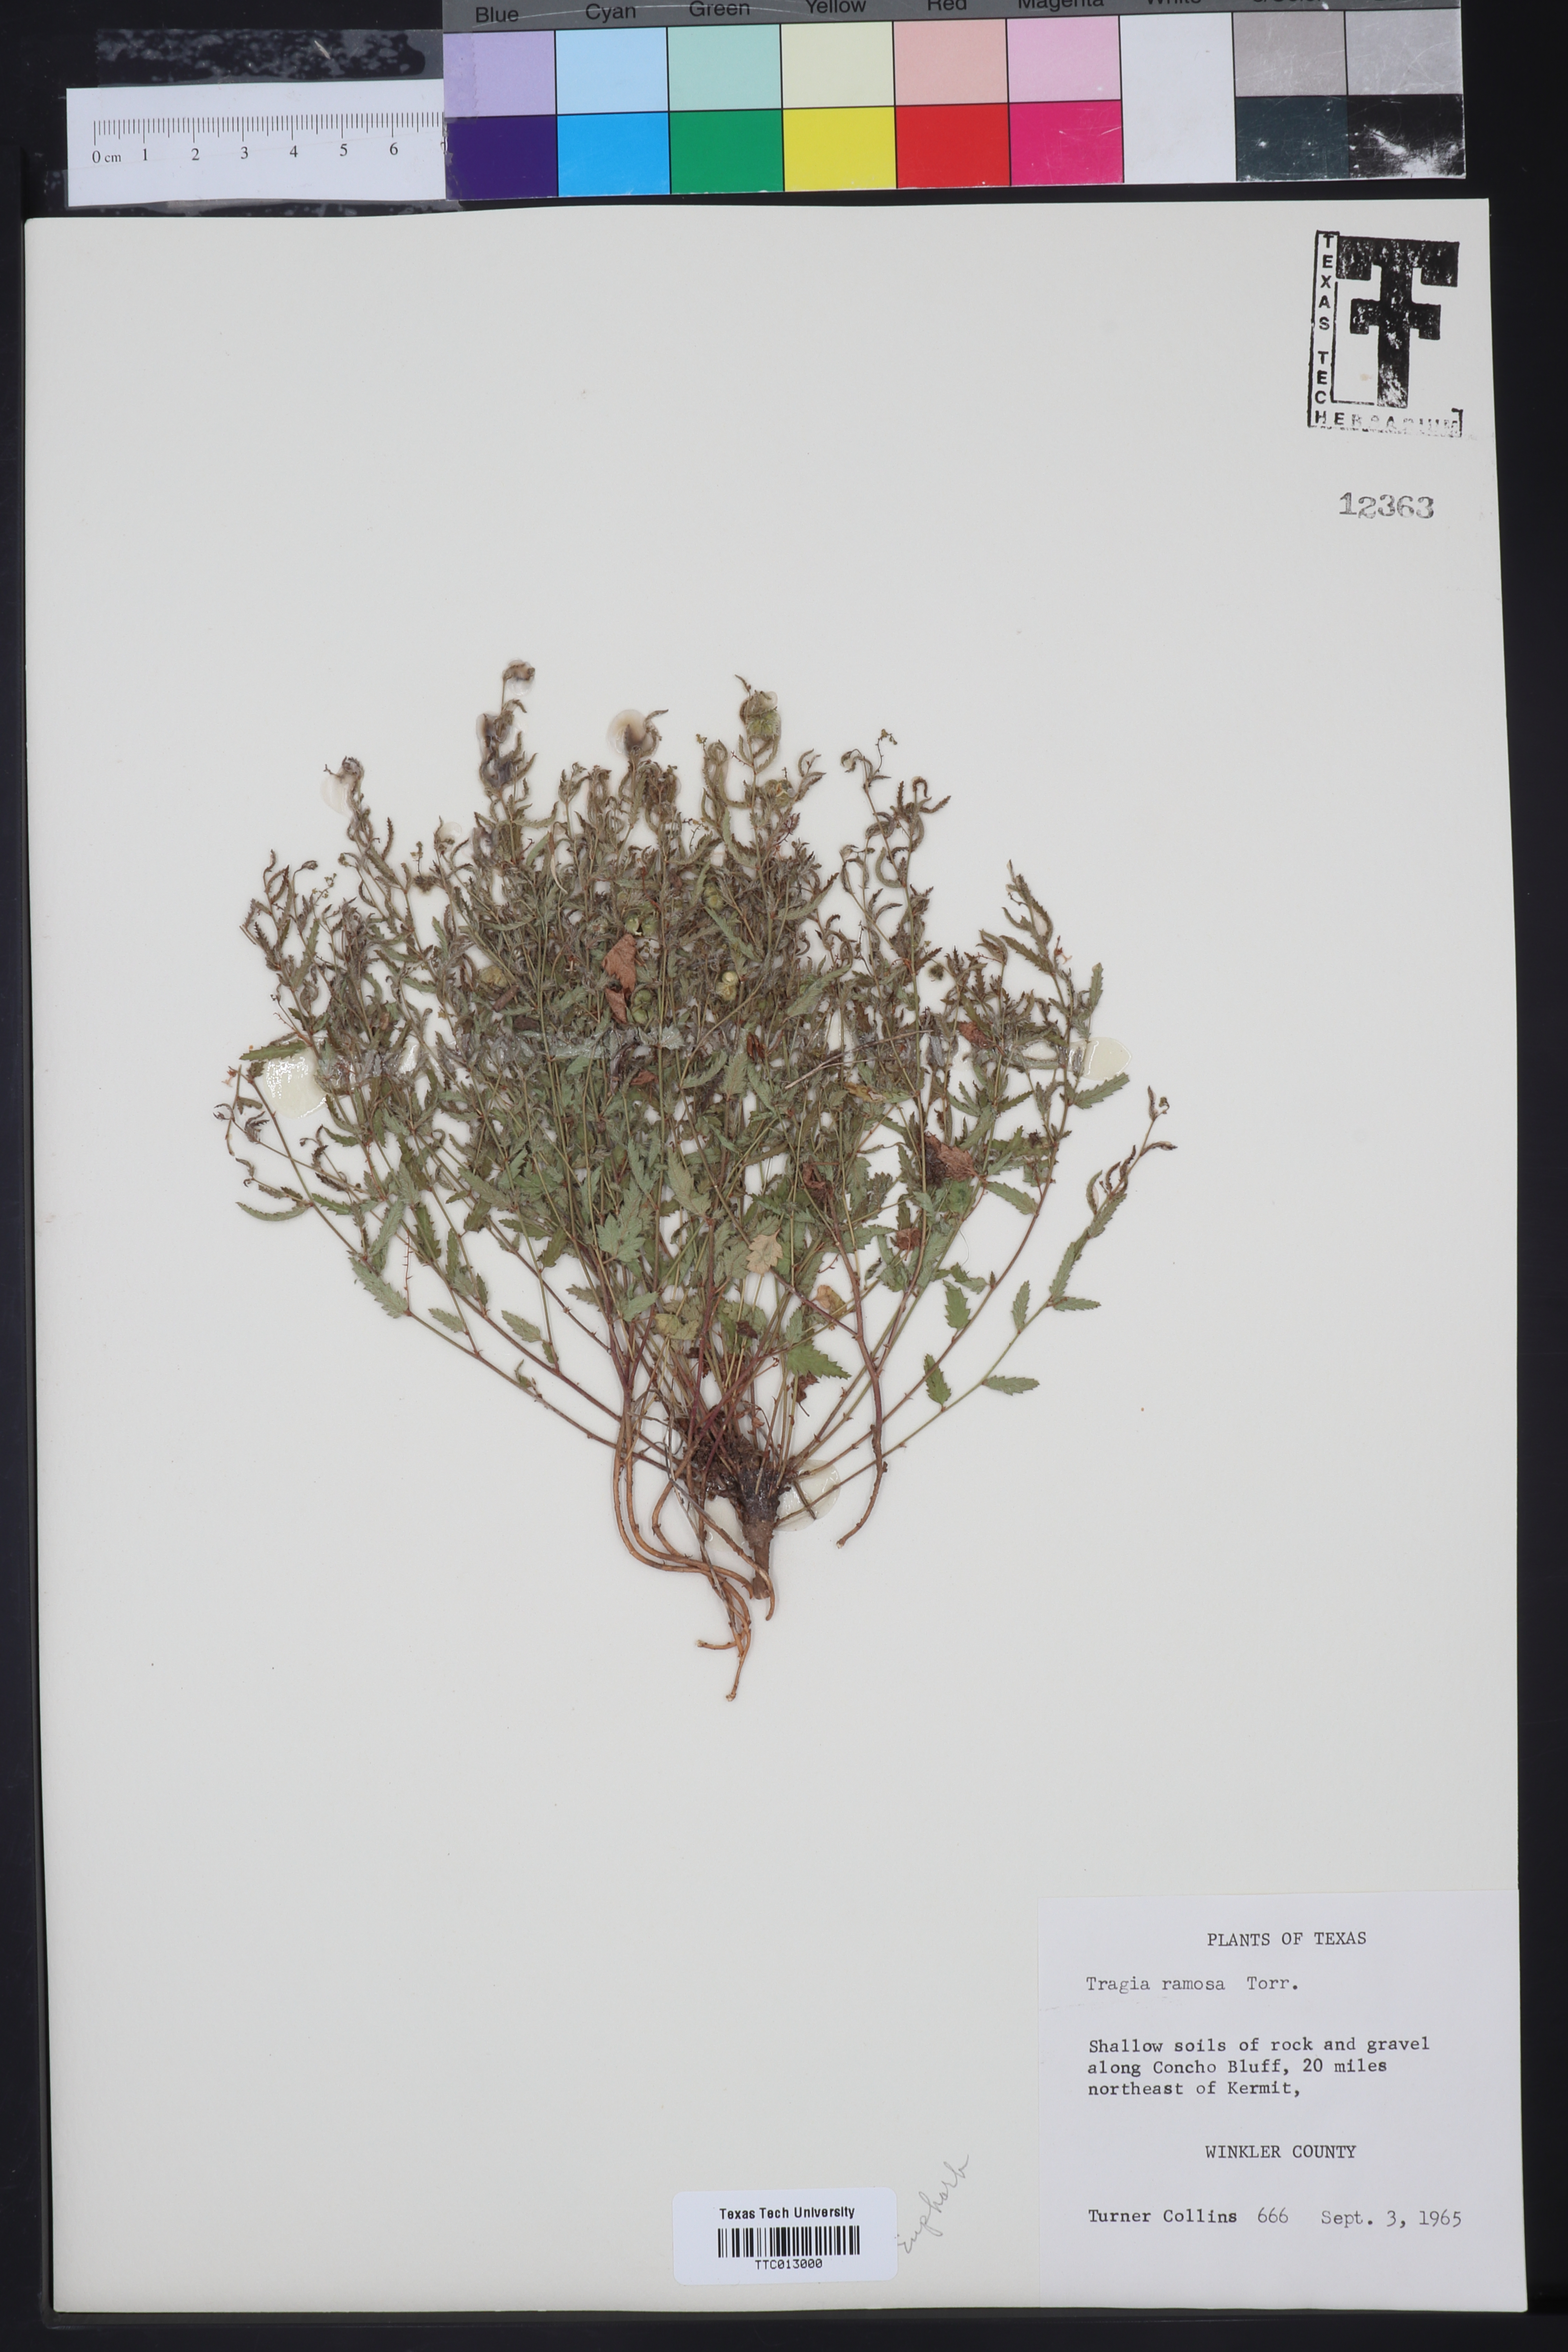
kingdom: Plantae
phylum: Tracheophyta
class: Magnoliopsida
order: Malpighiales
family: Euphorbiaceae
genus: Tragia
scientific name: Tragia ramosa
